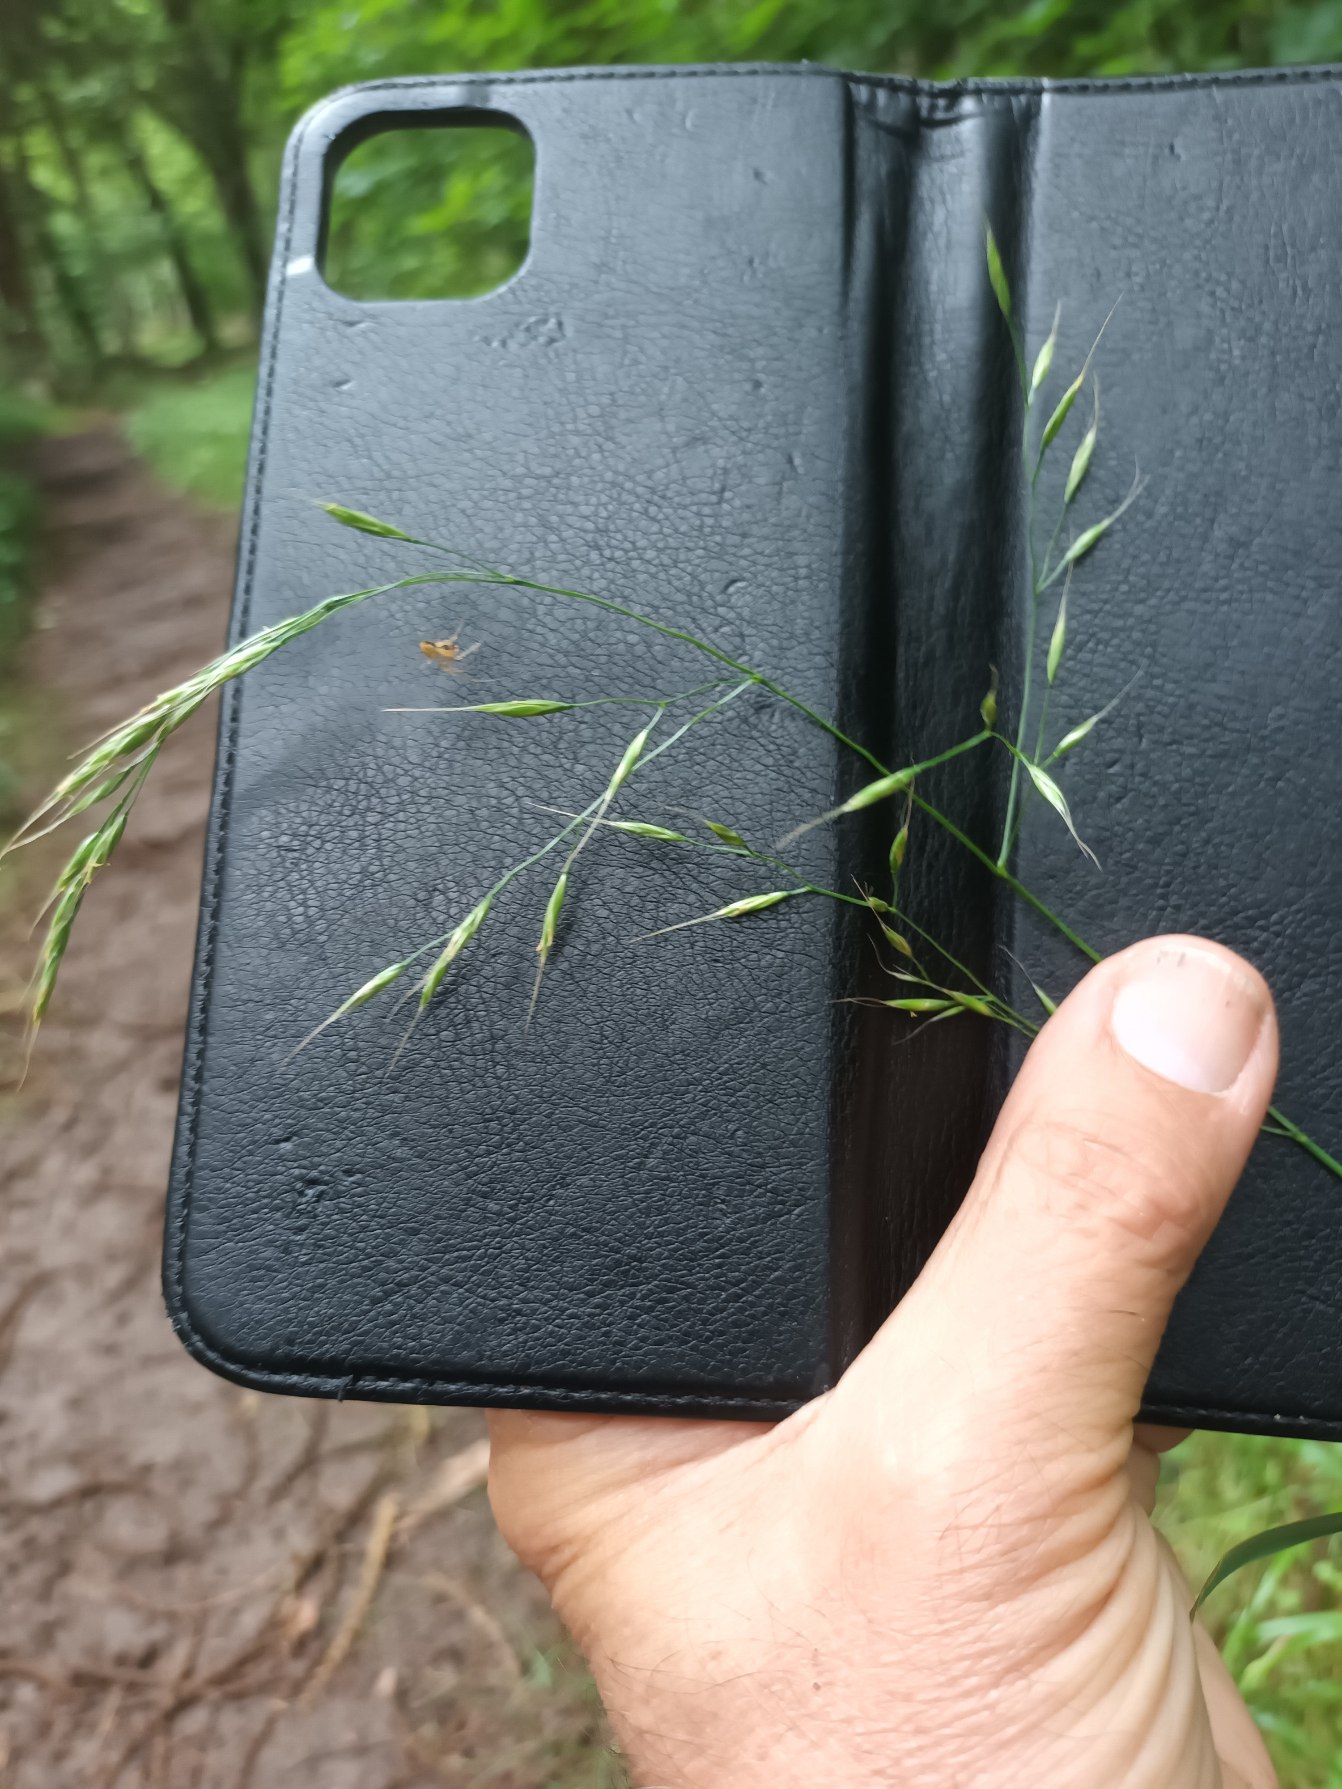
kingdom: Plantae
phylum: Tracheophyta
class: Liliopsida
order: Poales
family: Poaceae
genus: Lolium
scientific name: Lolium giganteum
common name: Kæmpe-svingel
